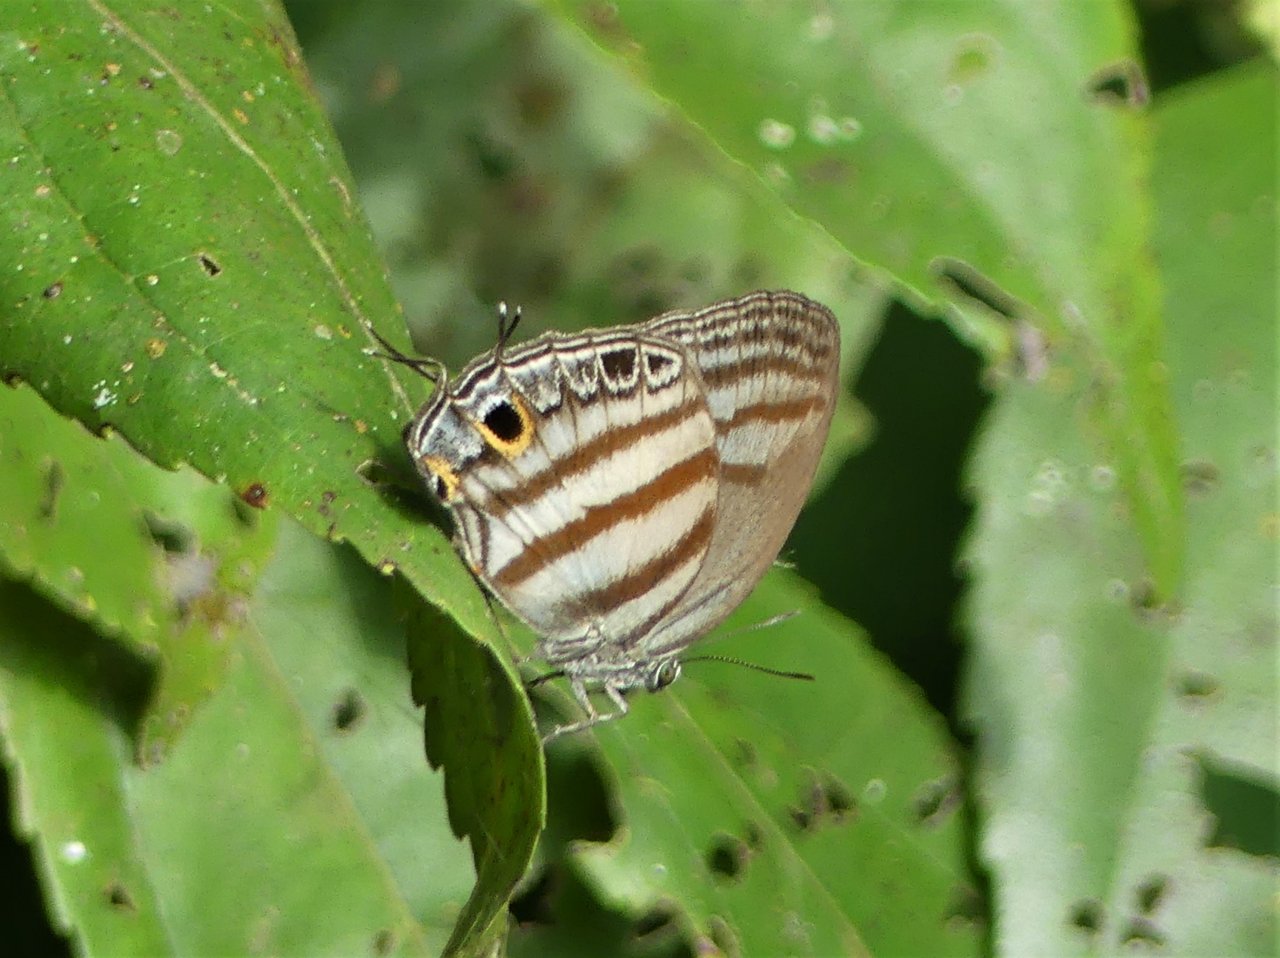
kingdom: Animalia
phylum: Arthropoda
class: Insecta
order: Lepidoptera
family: Lycaenidae
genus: Evenus
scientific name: Evenus temathea
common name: Timid Hairstreak
